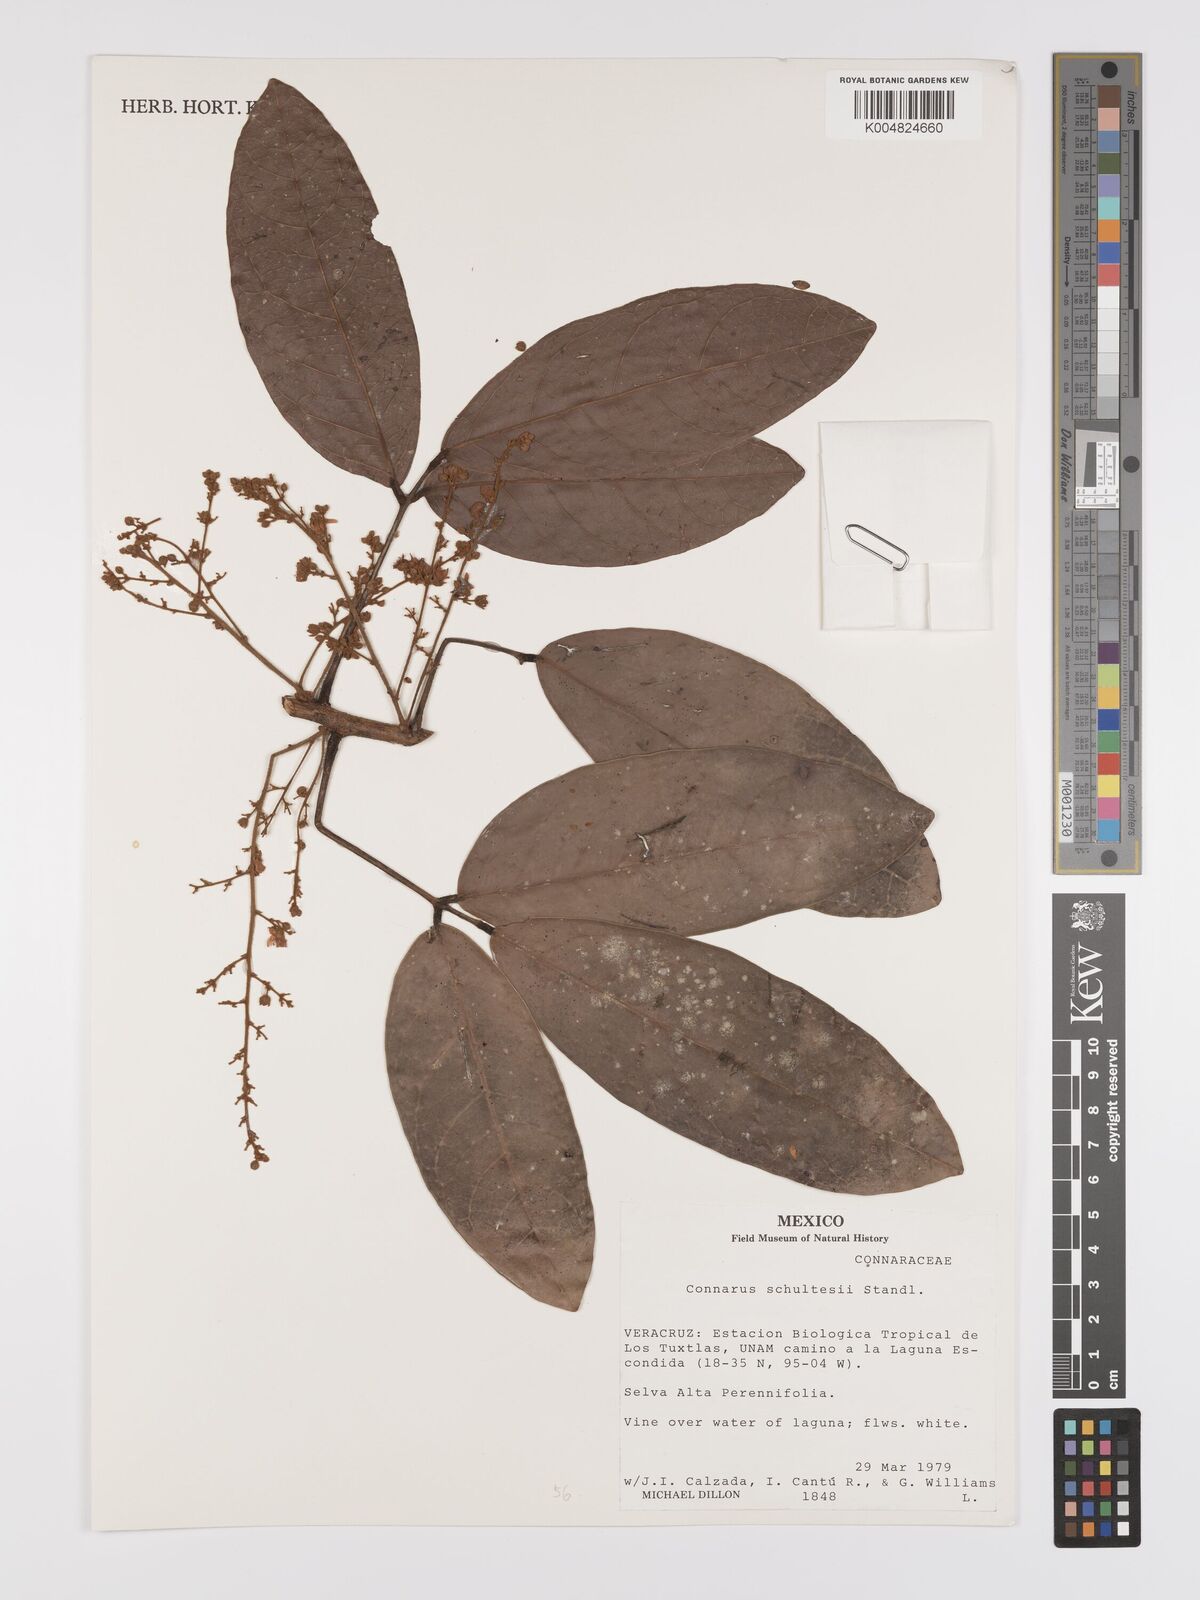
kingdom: Plantae
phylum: Tracheophyta
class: Magnoliopsida
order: Oxalidales
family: Connaraceae
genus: Connarus
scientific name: Connarus schultesii
